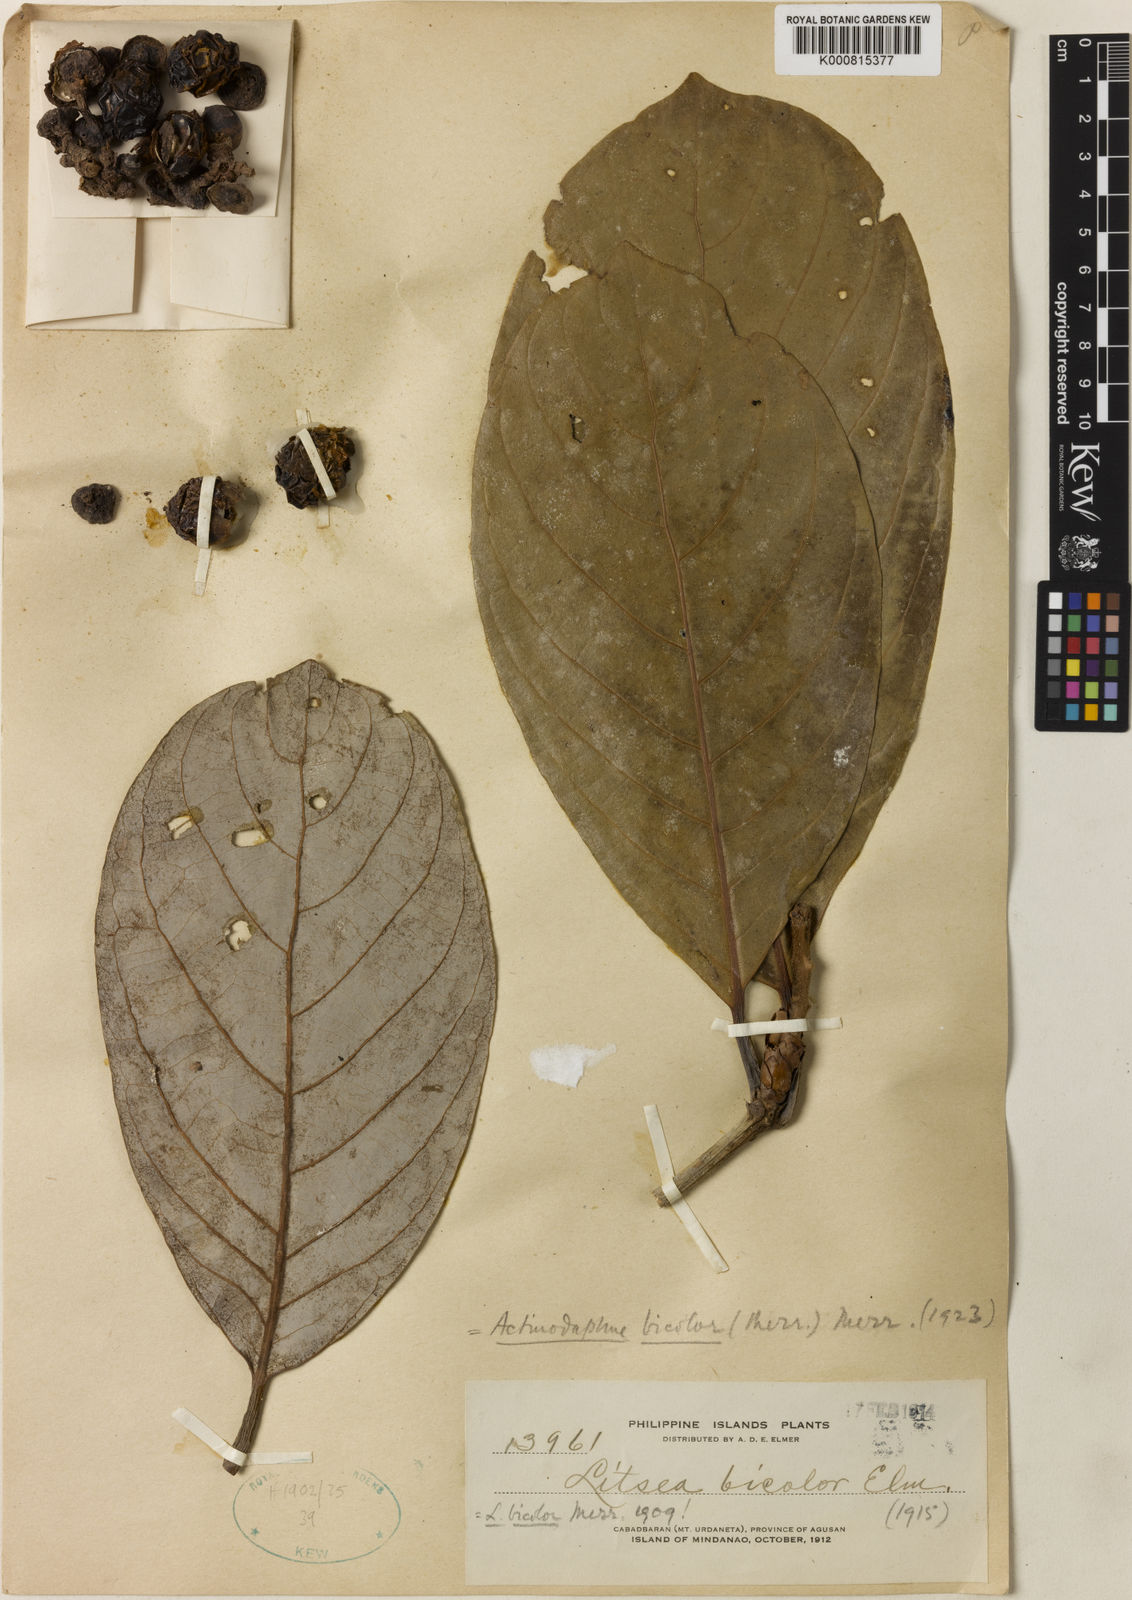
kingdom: Plantae
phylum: Tracheophyta
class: Magnoliopsida
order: Laurales
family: Lauraceae
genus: Actinodaphne
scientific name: Actinodaphne bicolor
